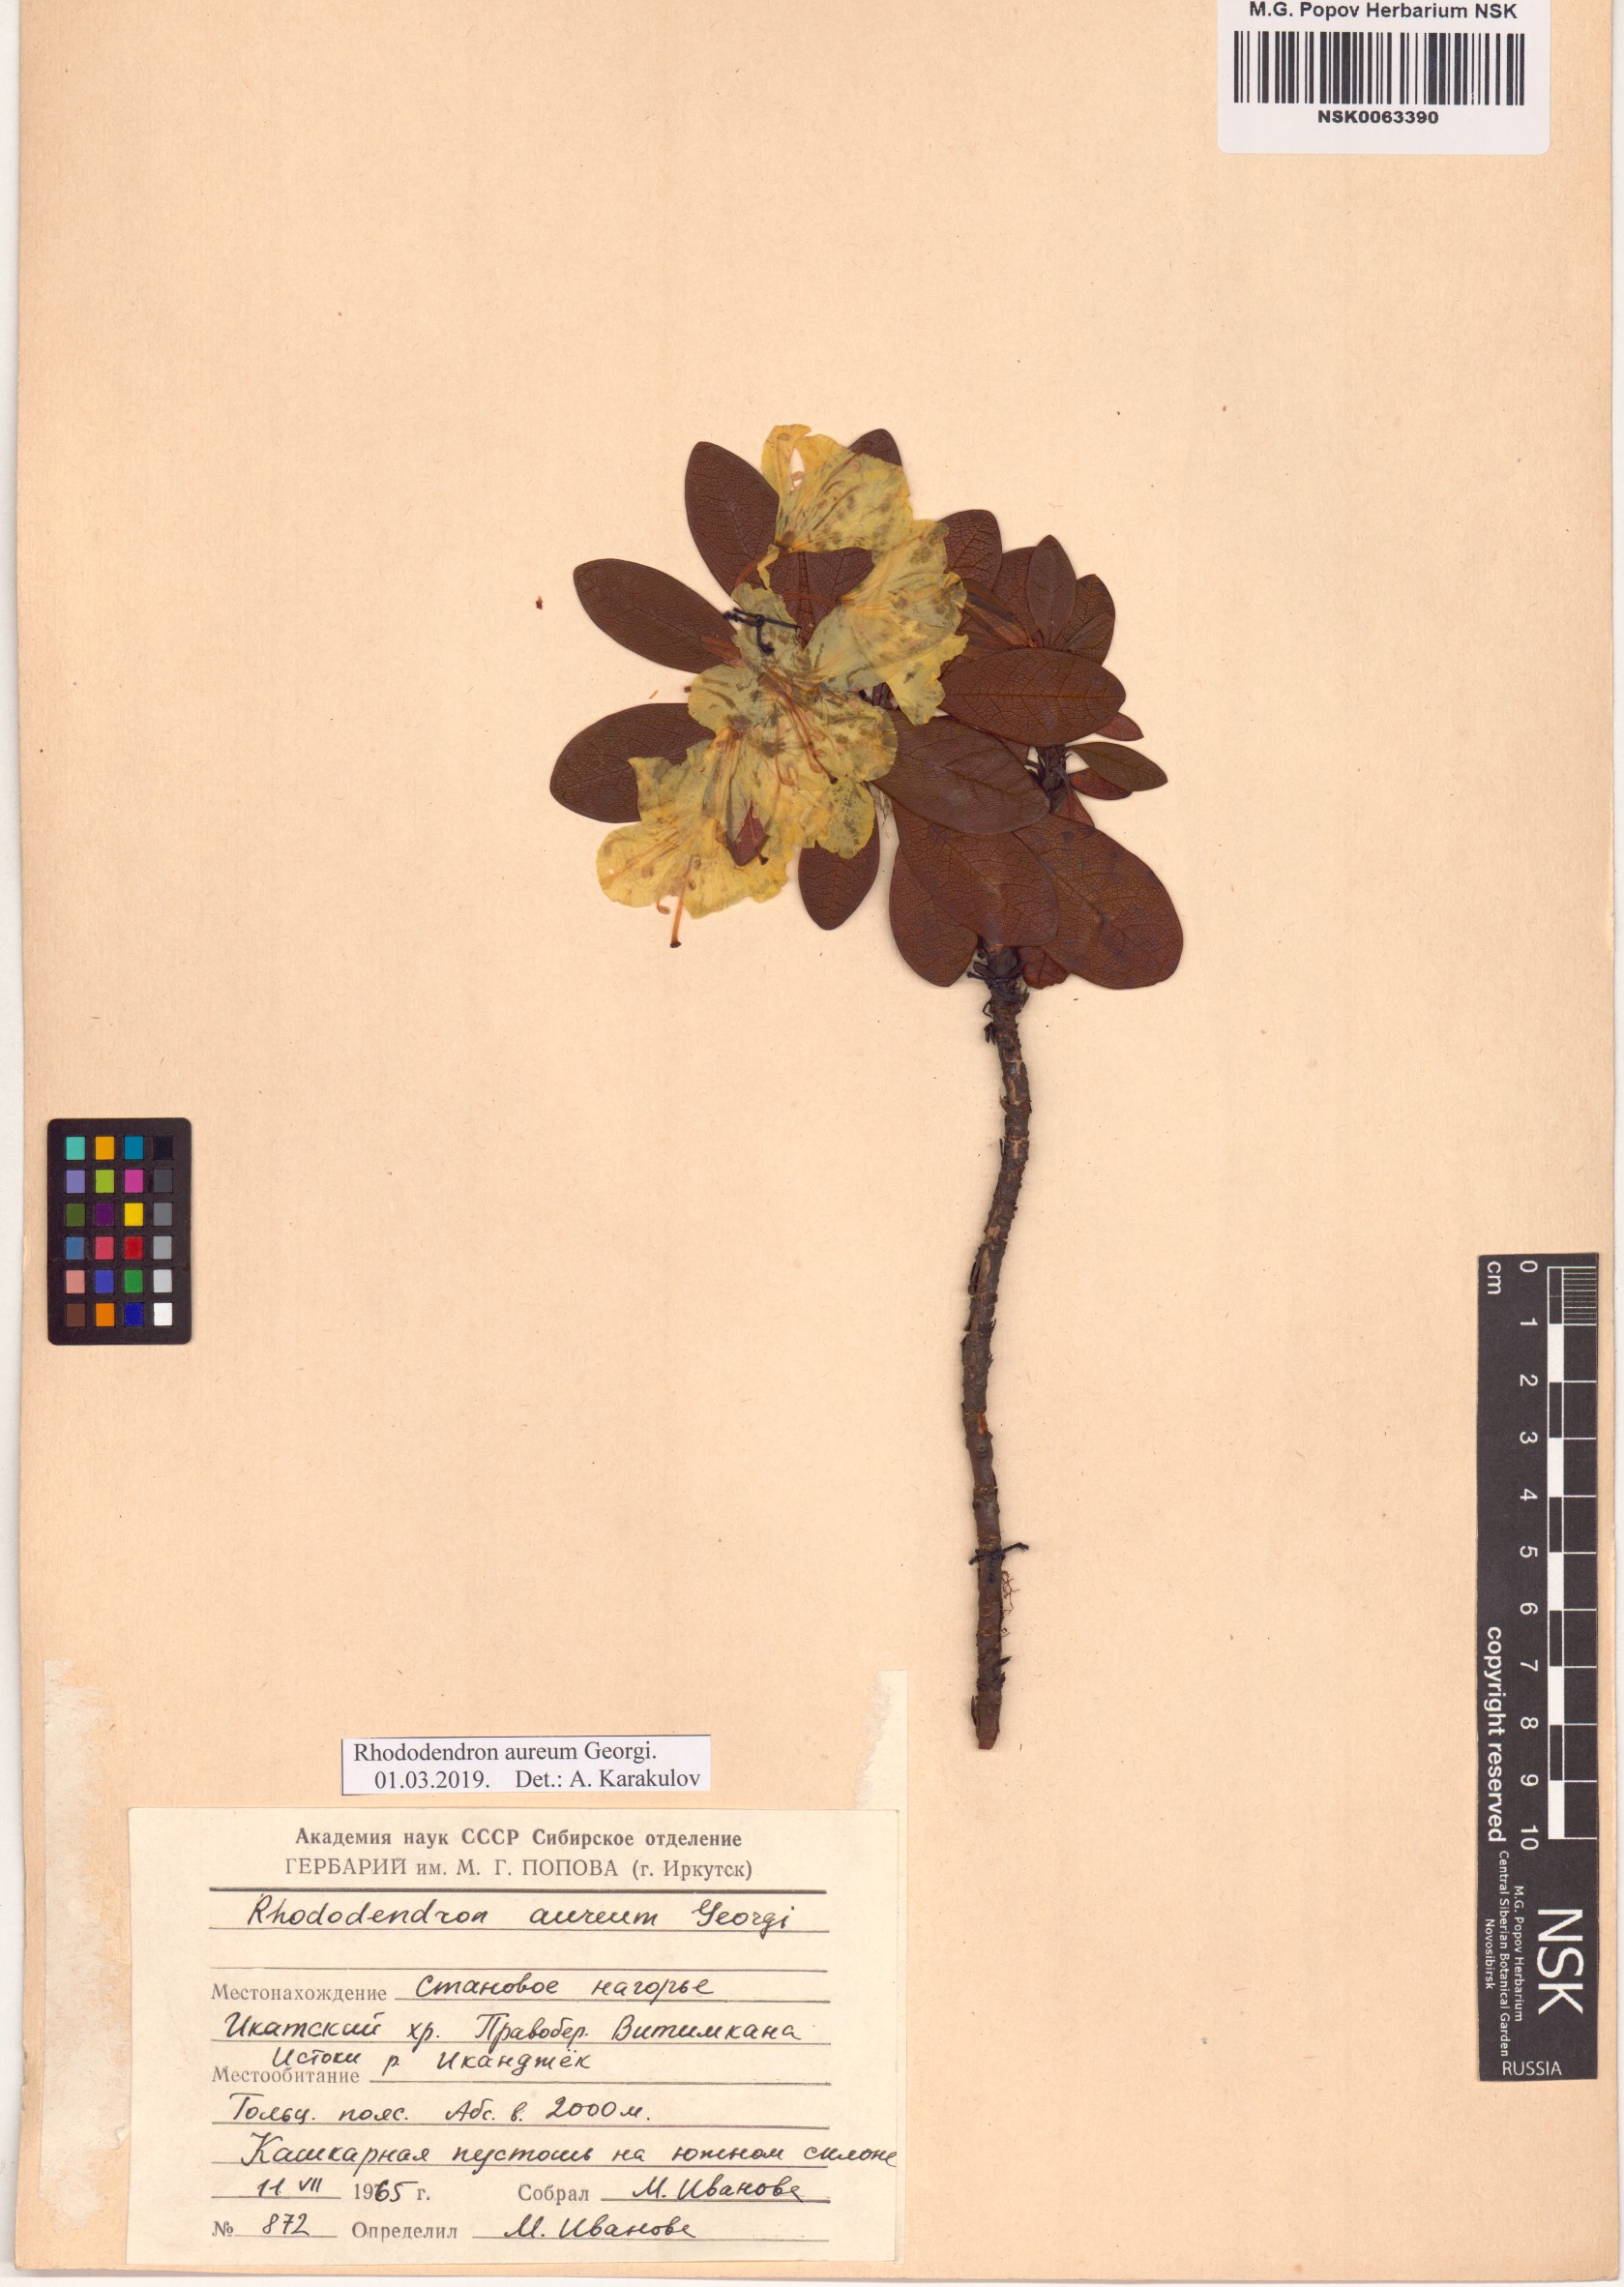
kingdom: Plantae
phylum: Tracheophyta
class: Magnoliopsida
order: Ericales
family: Ericaceae
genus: Rhododendron
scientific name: Rhododendron aureum
